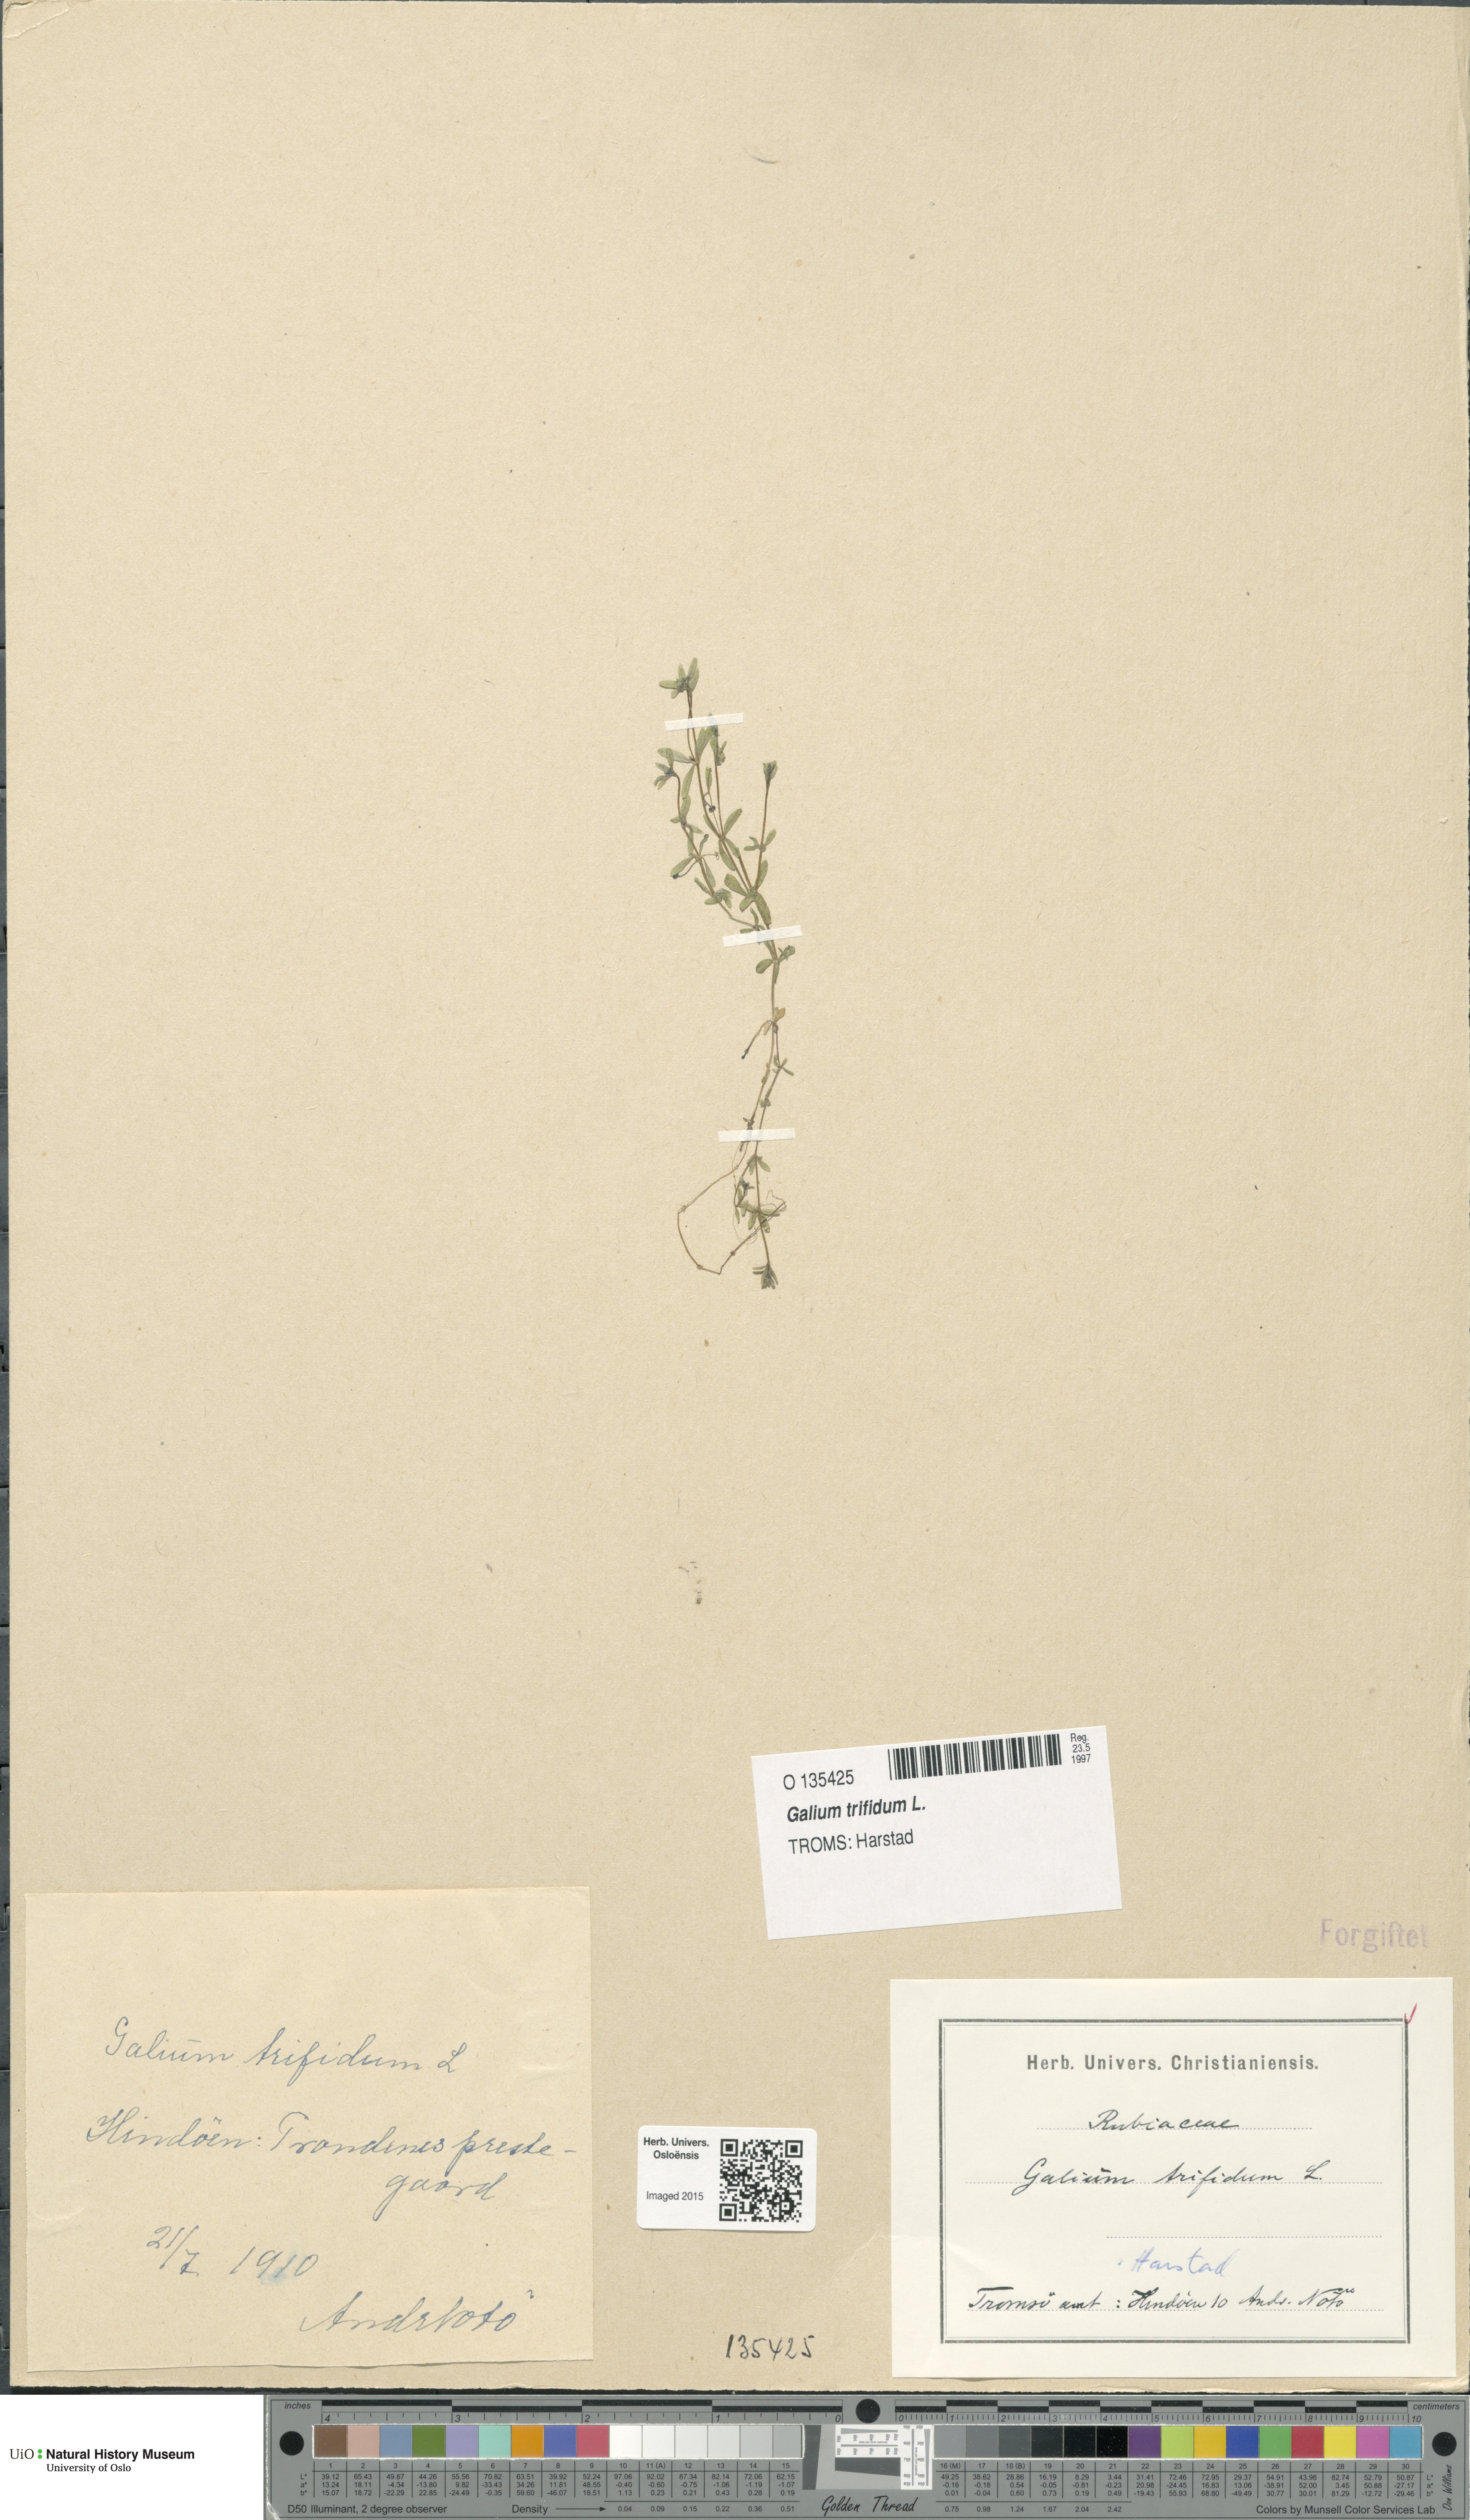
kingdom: Plantae
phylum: Tracheophyta
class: Magnoliopsida
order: Gentianales
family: Rubiaceae
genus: Galium
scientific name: Galium trifidum
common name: Small bedstraw
